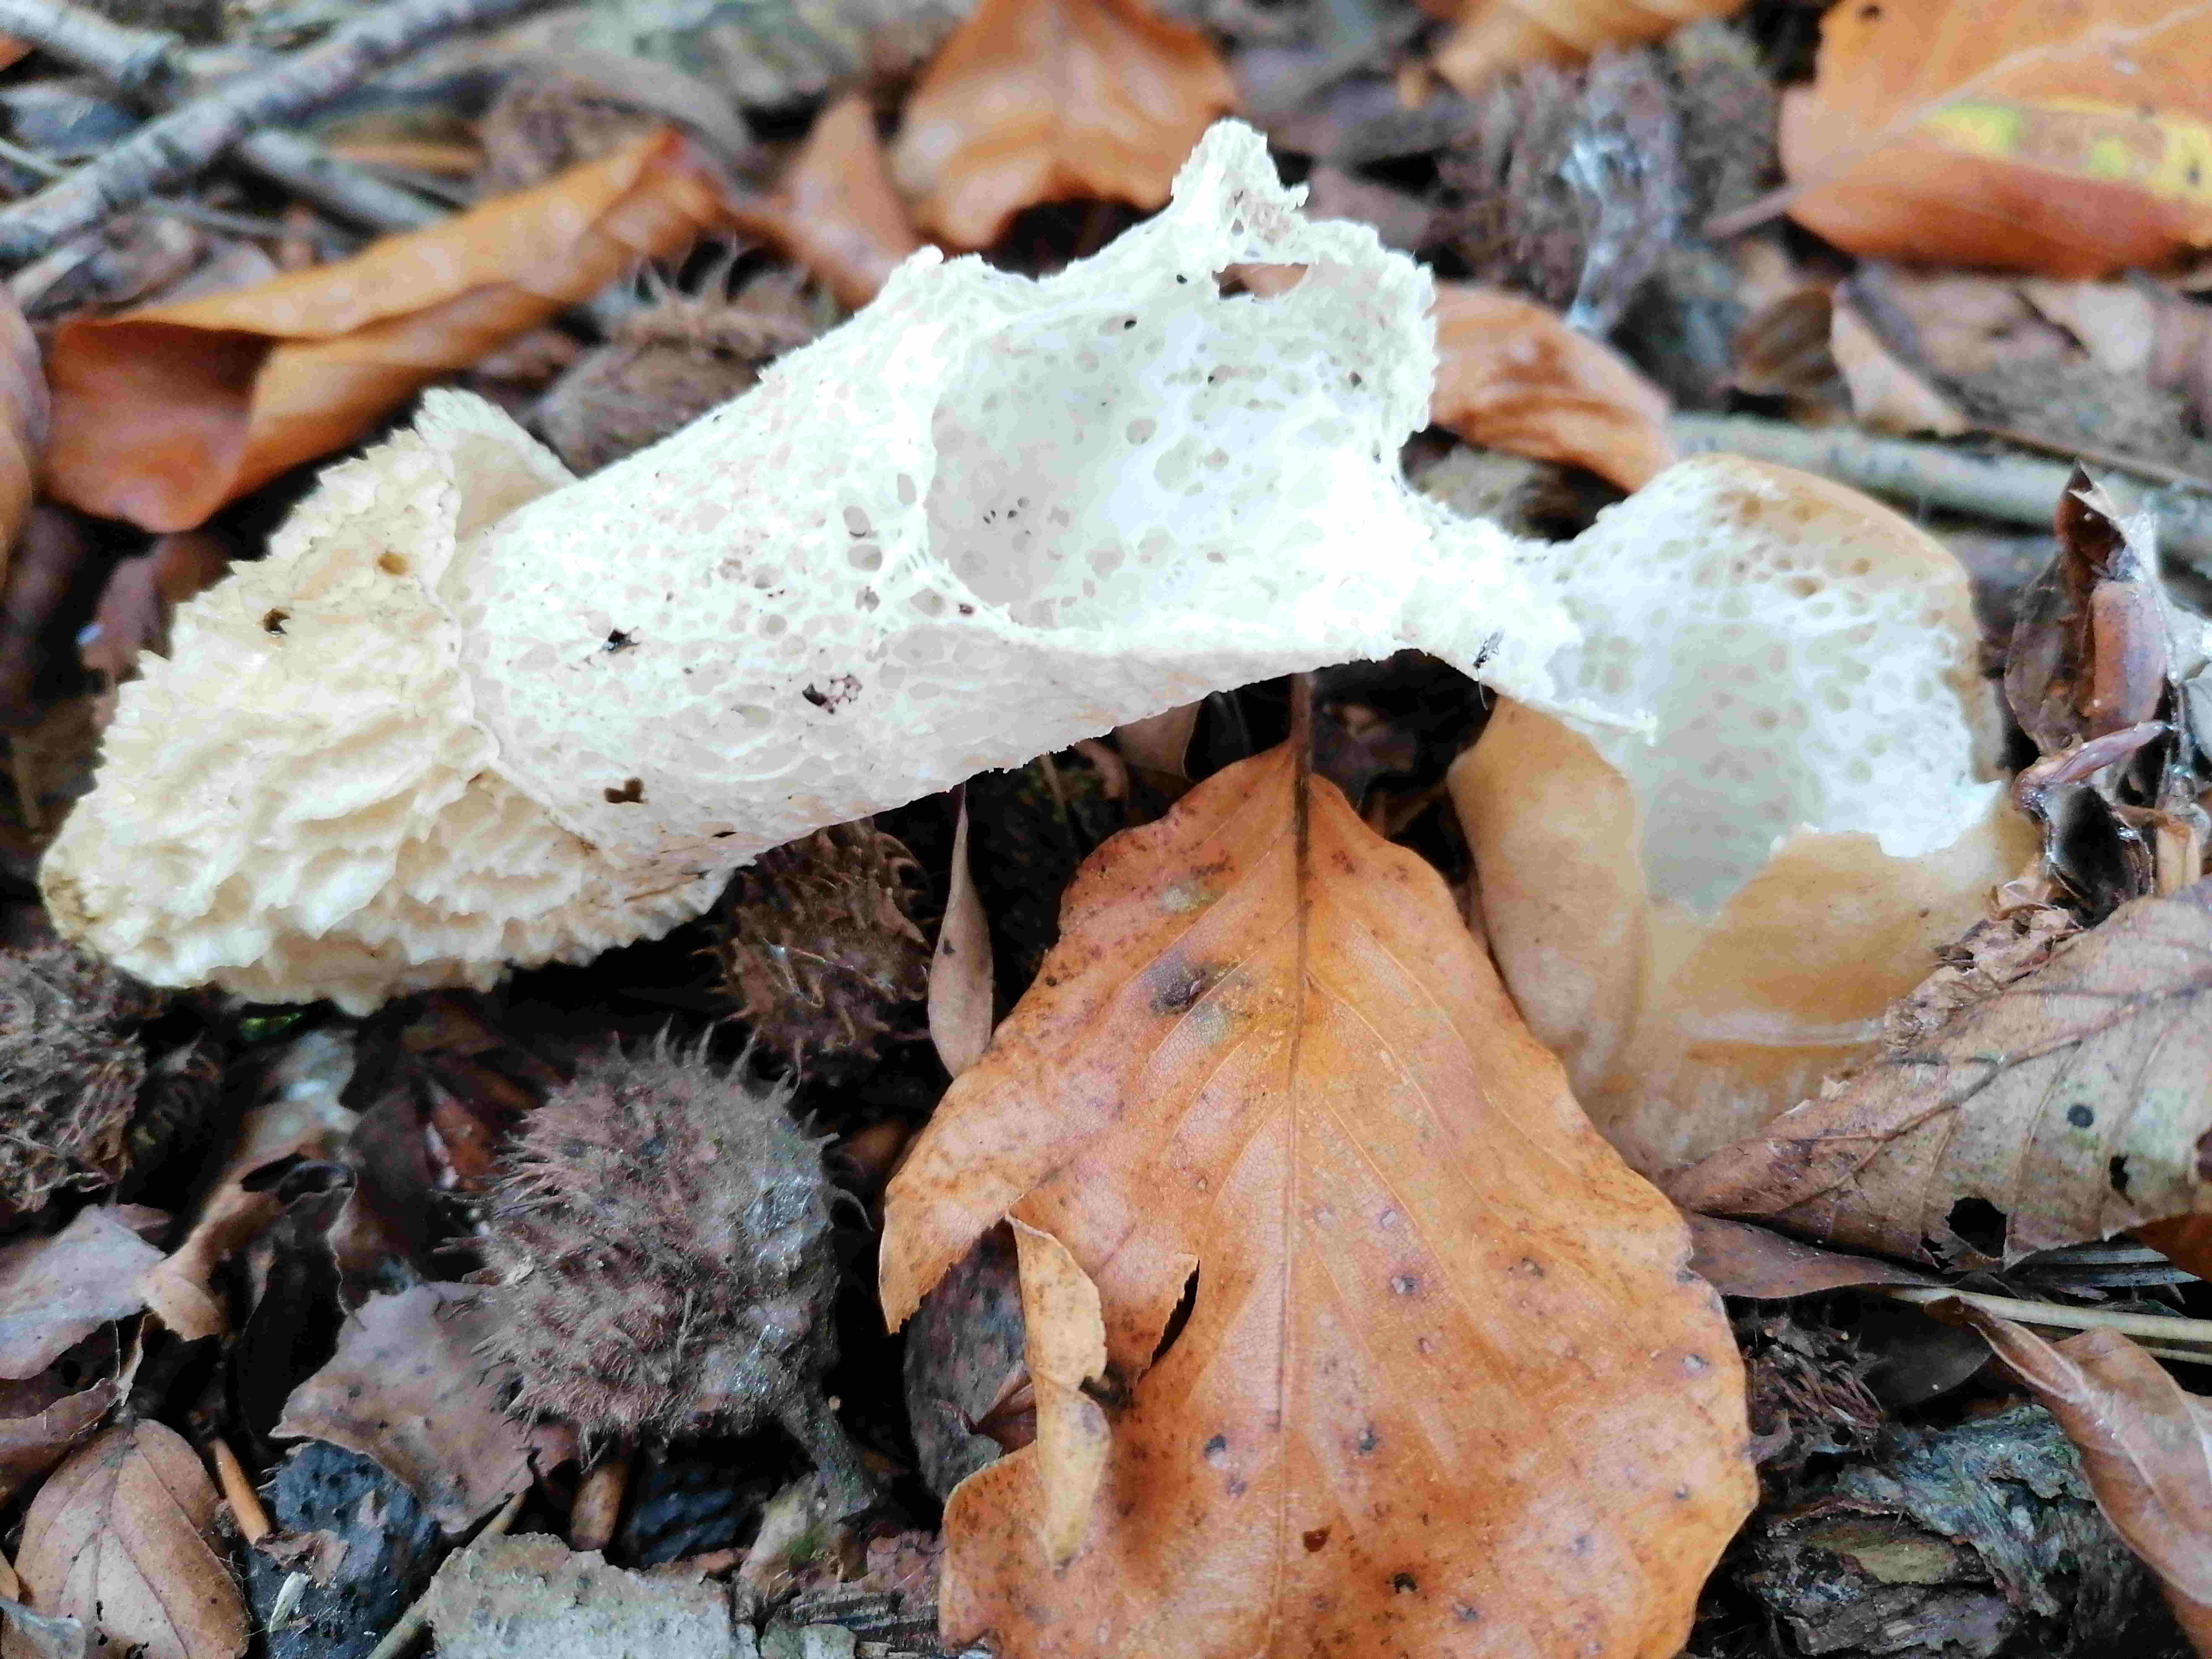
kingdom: Fungi
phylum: Basidiomycota
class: Agaricomycetes
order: Phallales
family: Phallaceae
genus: Phallus
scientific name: Phallus impudicus
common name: almindelig stinksvamp
